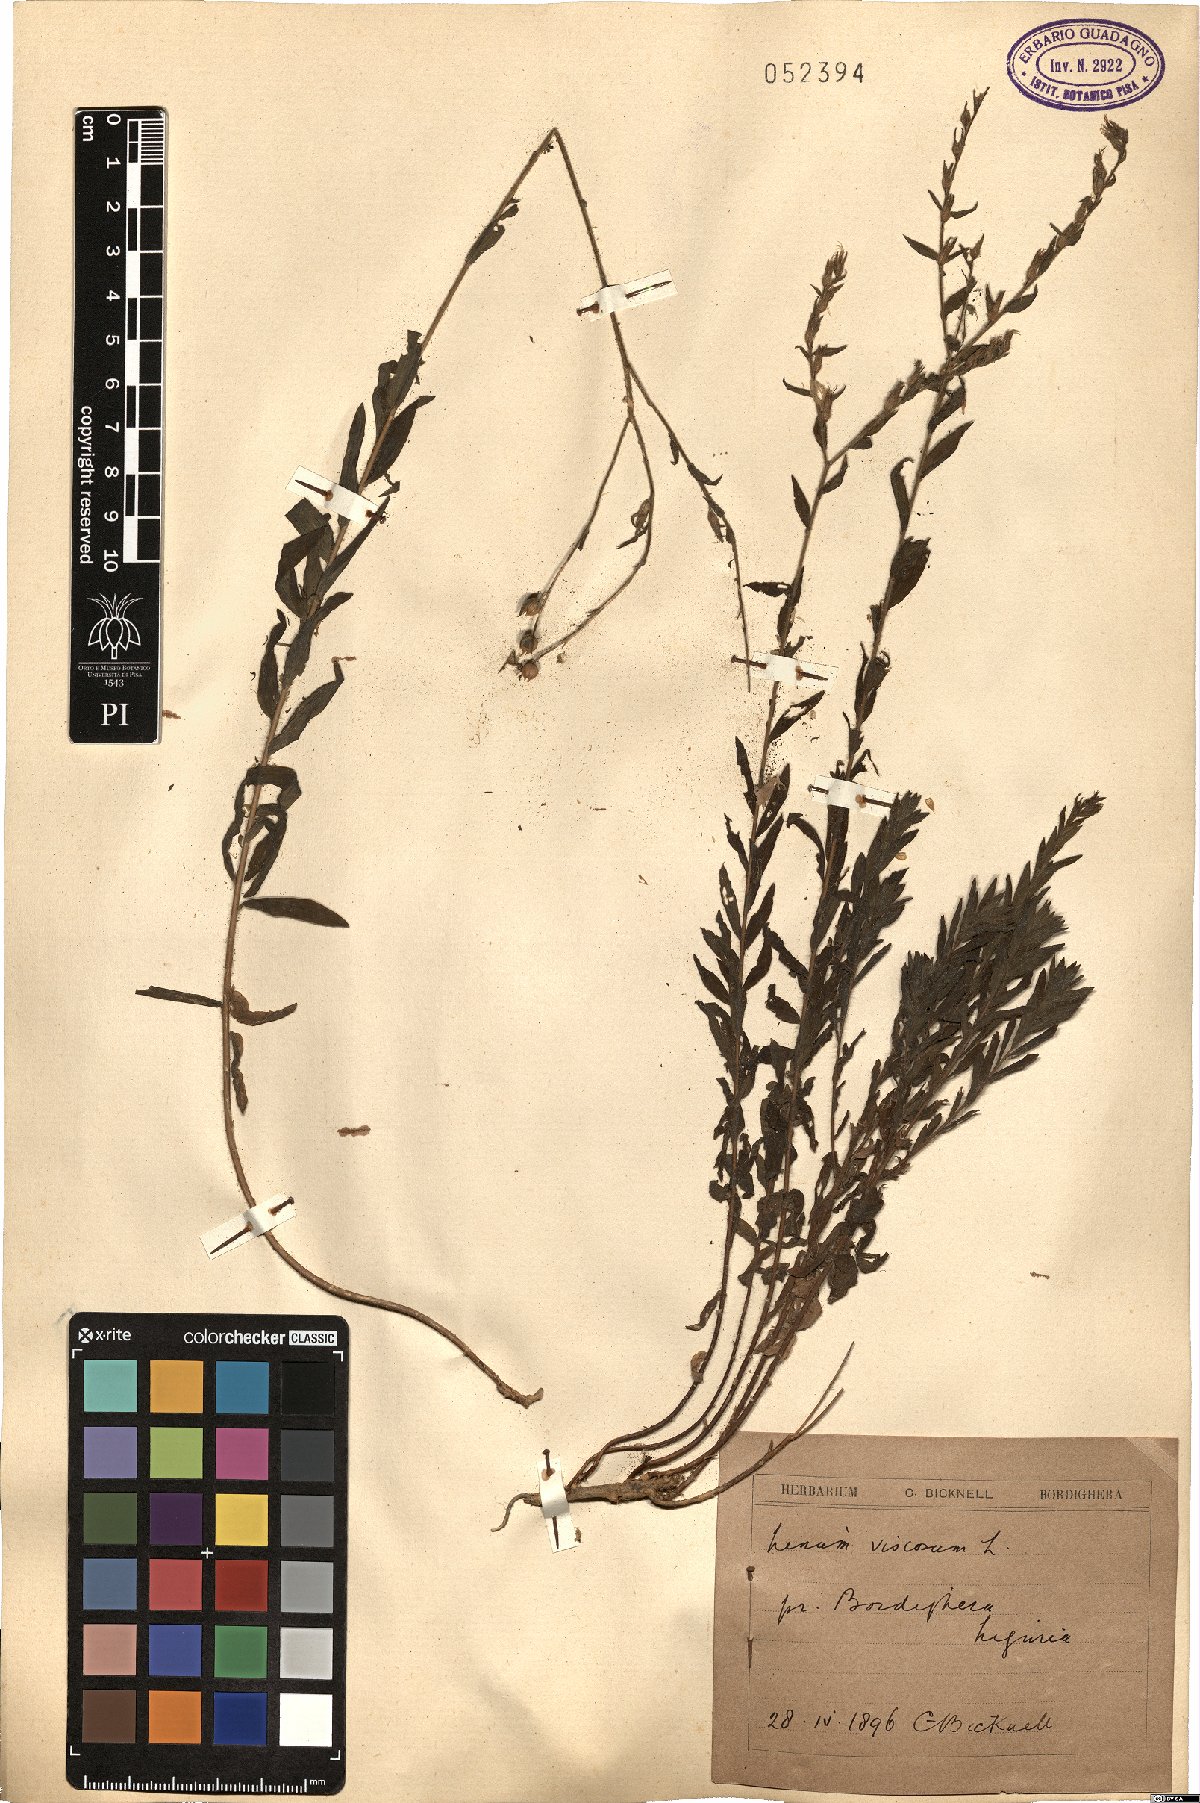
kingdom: Plantae
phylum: Tracheophyta
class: Magnoliopsida
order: Malpighiales
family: Linaceae
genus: Linum
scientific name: Linum viscosum
